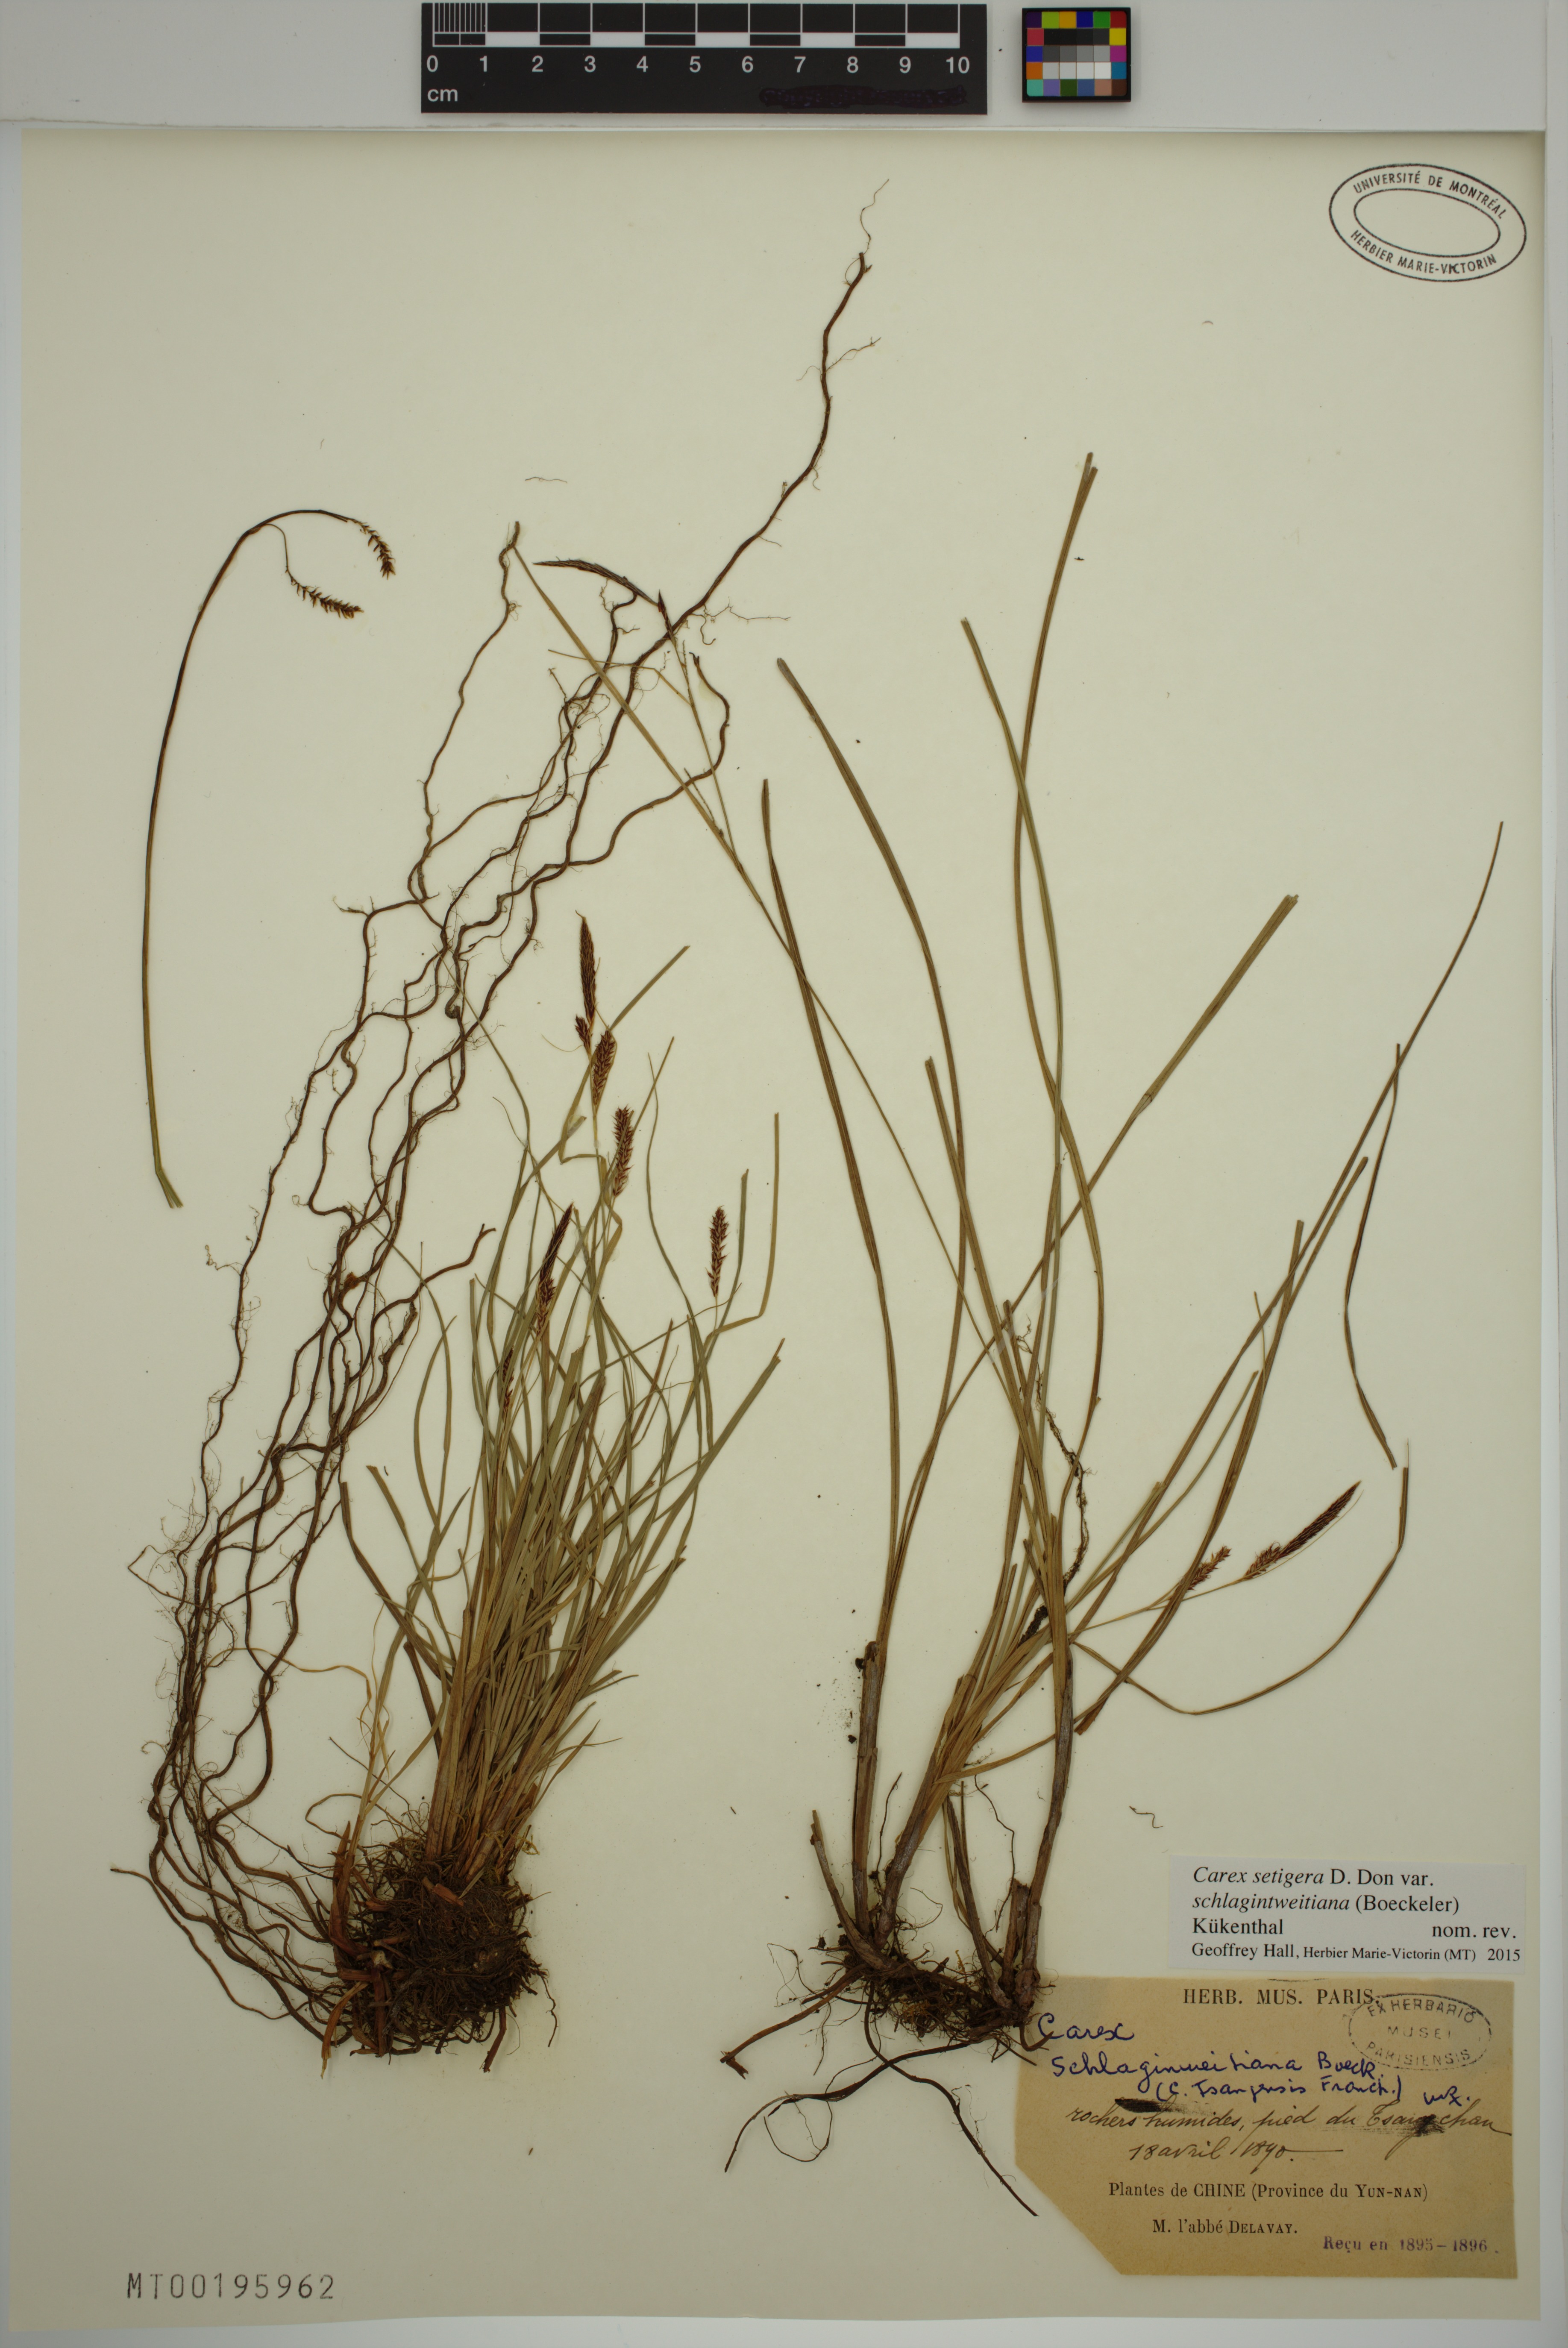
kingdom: Plantae
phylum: Tracheophyta
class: Liliopsida
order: Poales
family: Cyperaceae
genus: Carex
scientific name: Carex setigera
